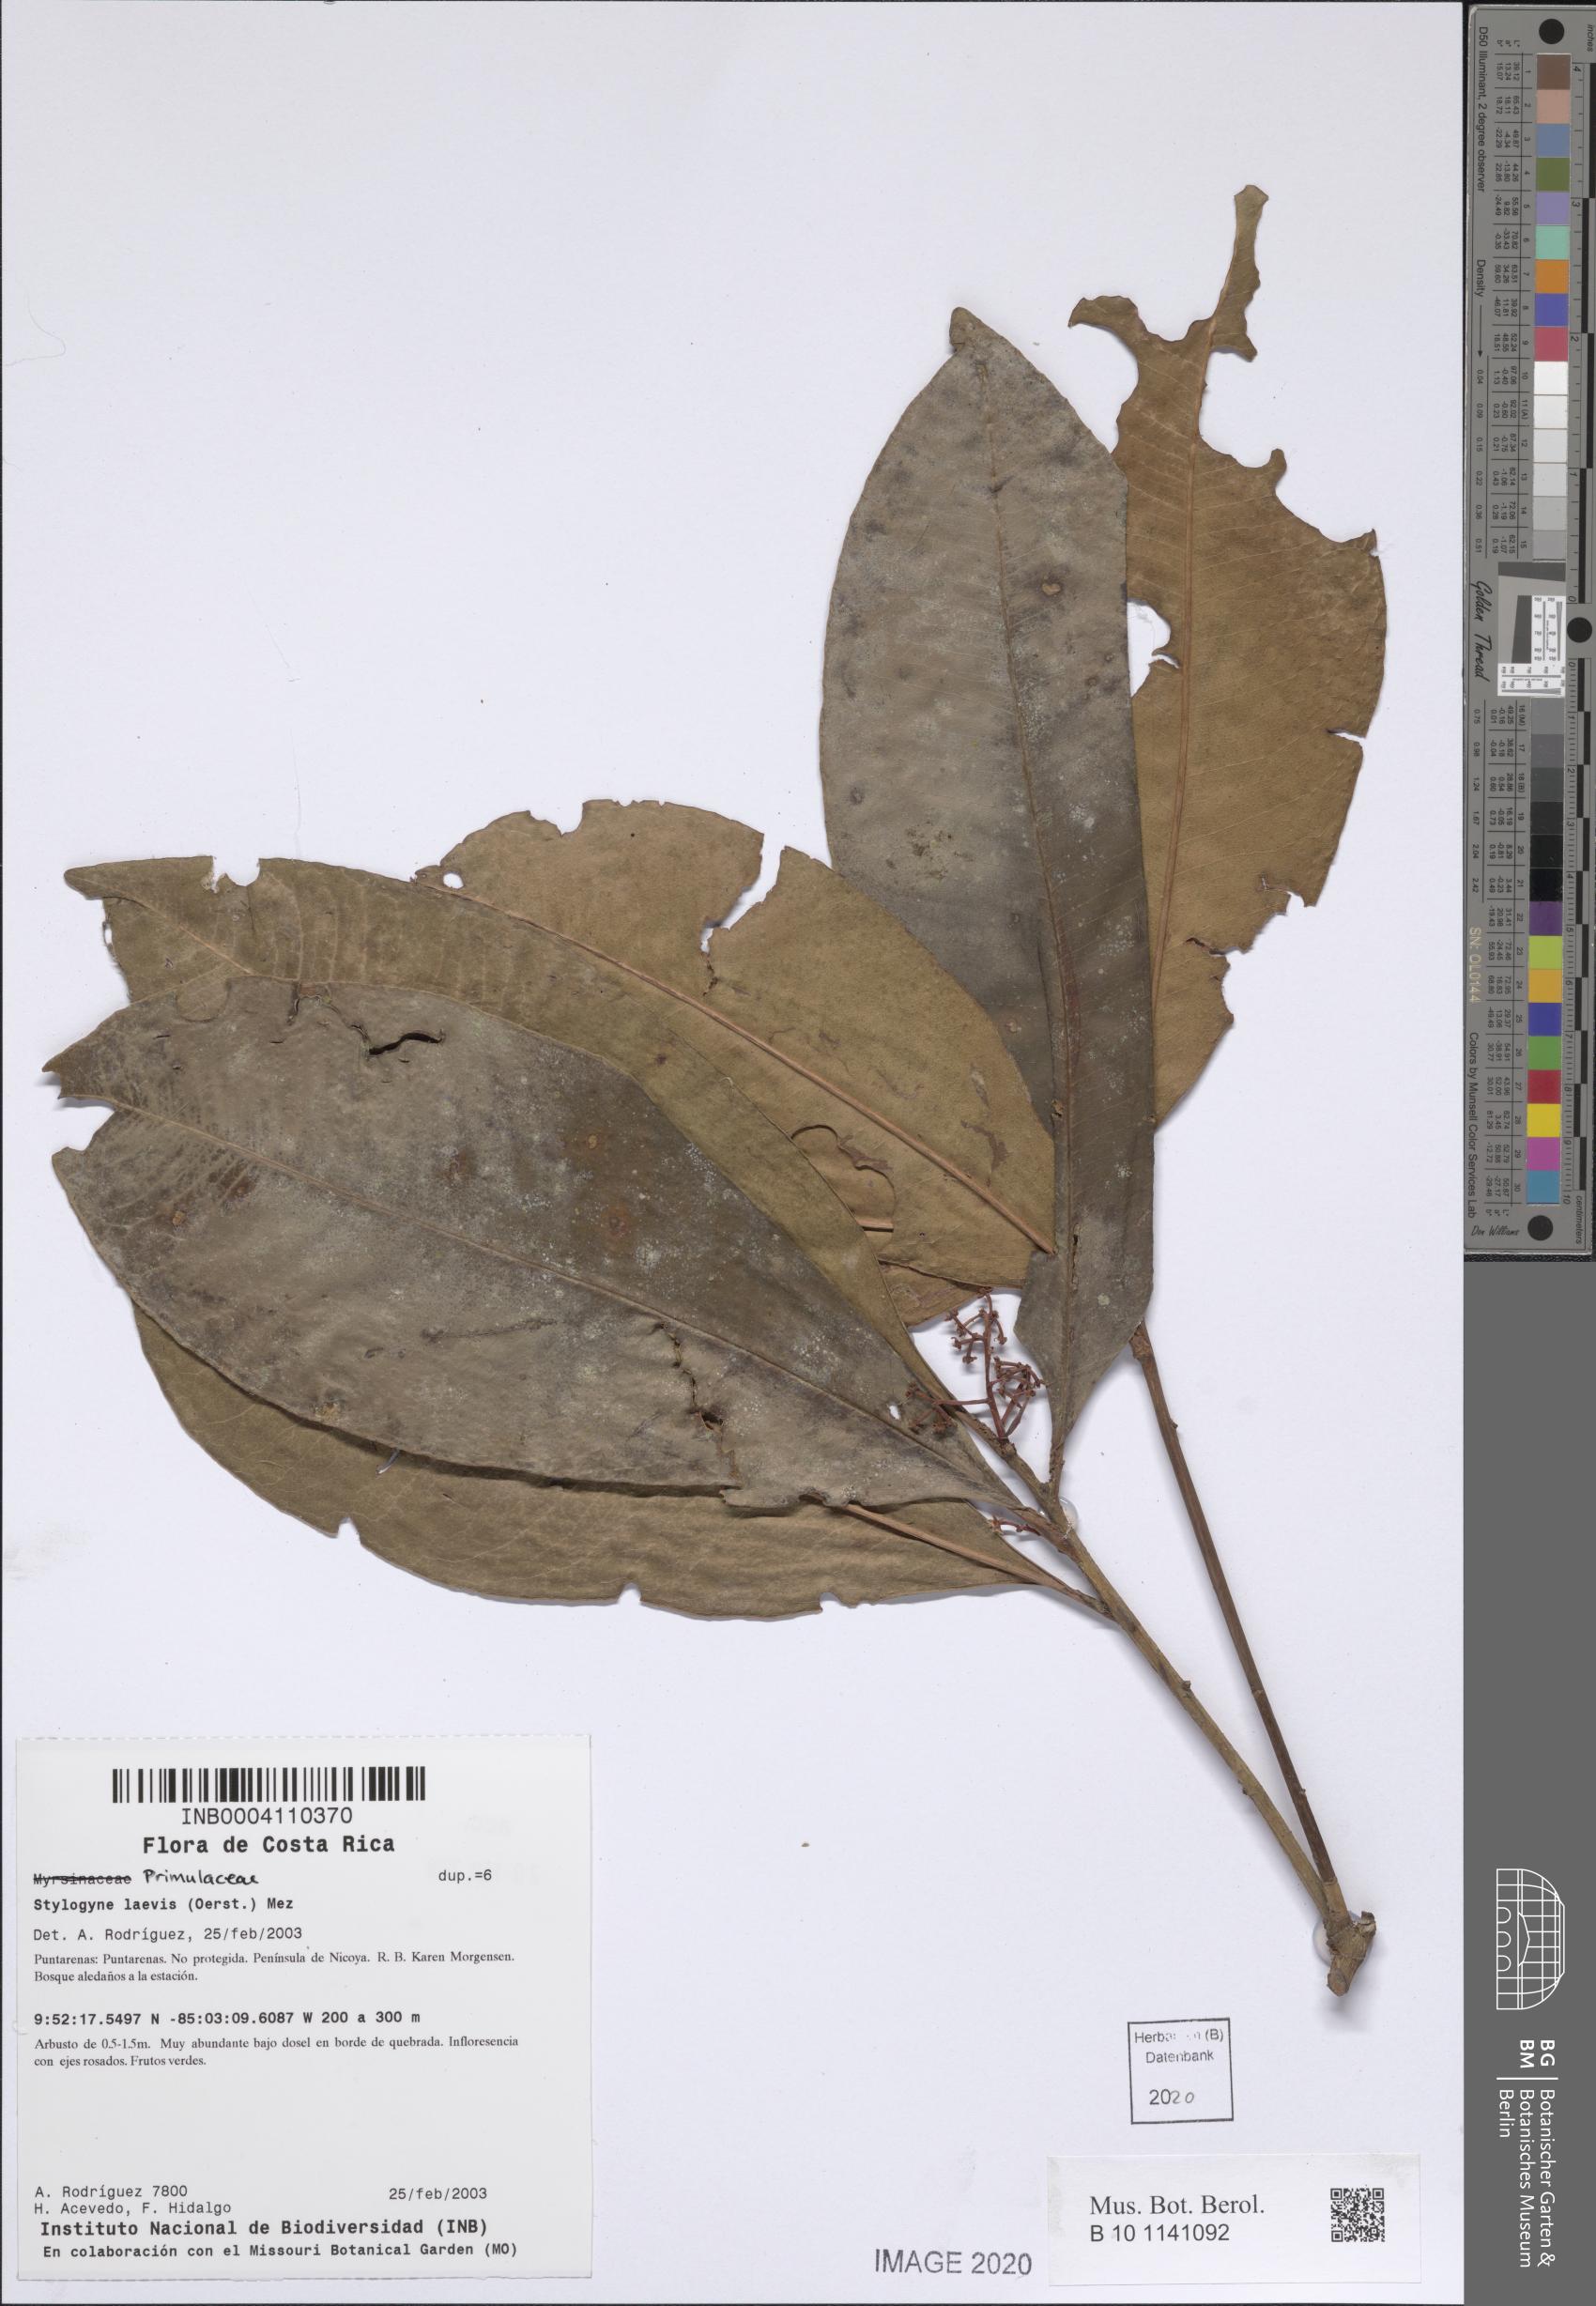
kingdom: Plantae
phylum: Tracheophyta
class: Magnoliopsida
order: Ericales
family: Primulaceae
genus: Stylogyne
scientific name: Stylogyne turbacensis
